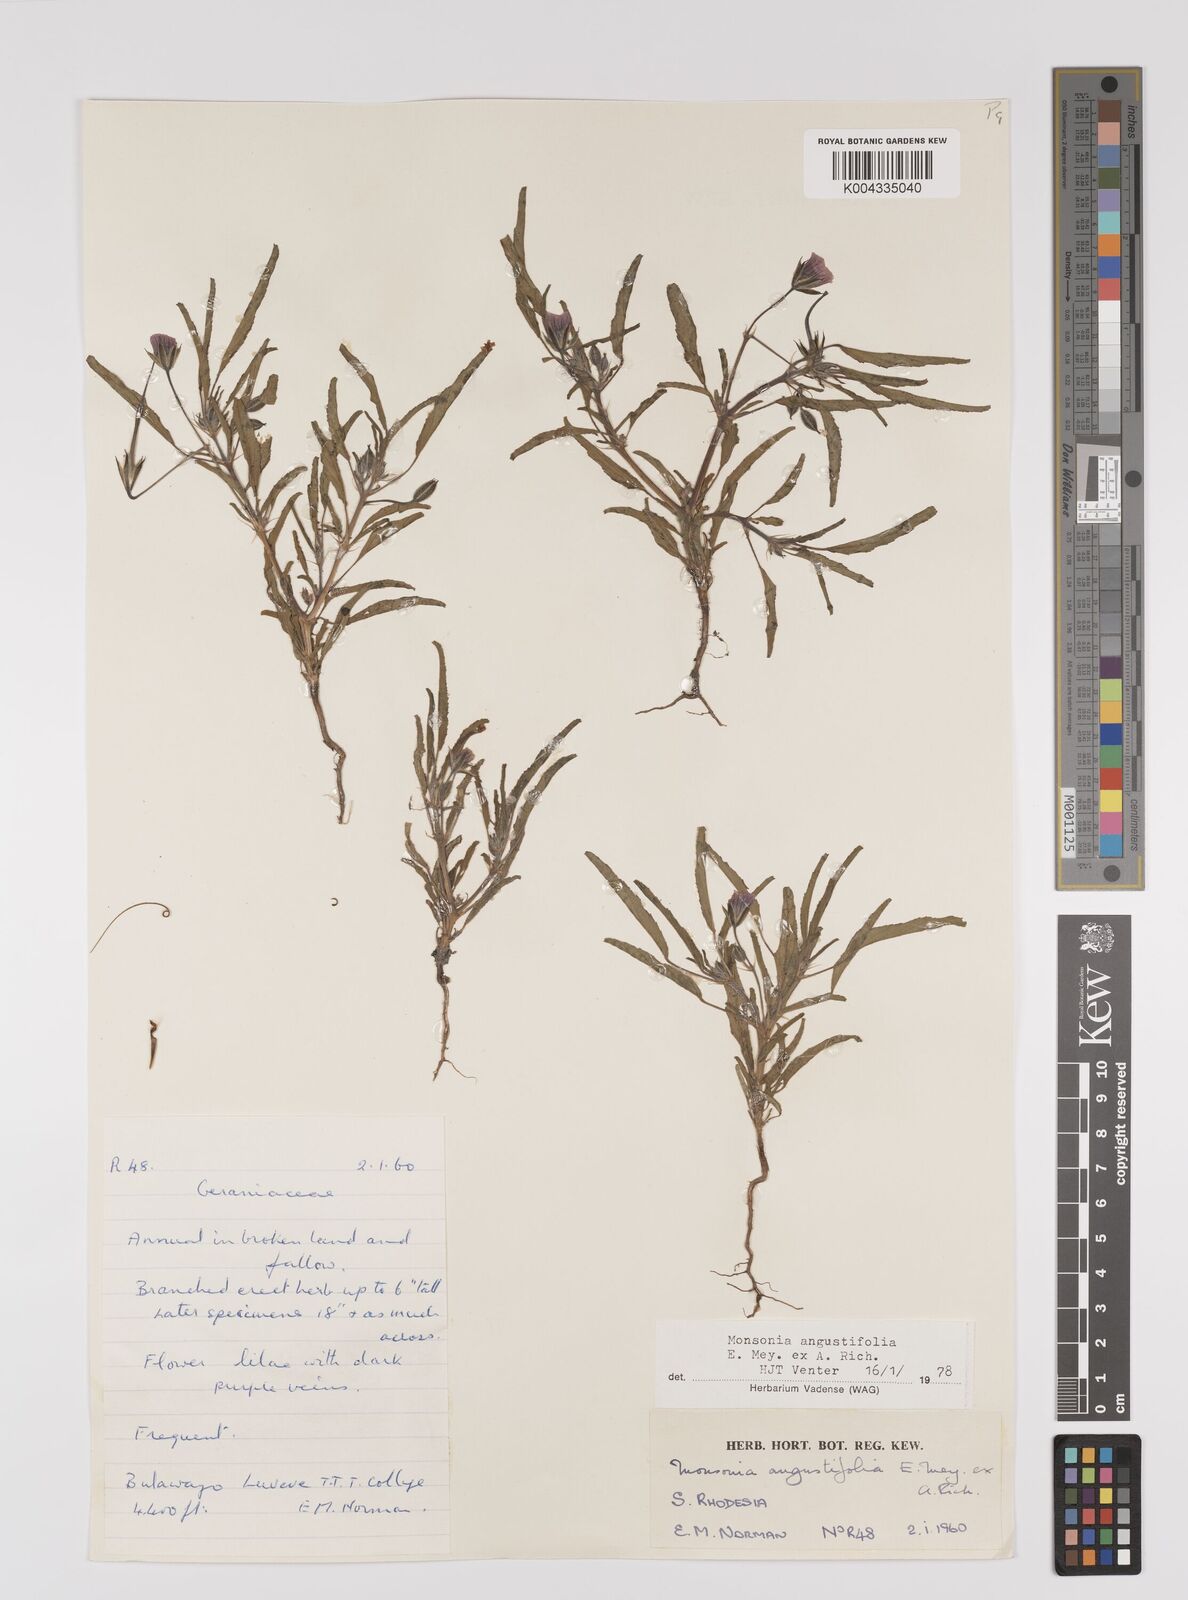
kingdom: Plantae
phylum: Tracheophyta
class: Magnoliopsida
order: Geraniales
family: Geraniaceae
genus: Monsonia
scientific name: Monsonia angustifolia
